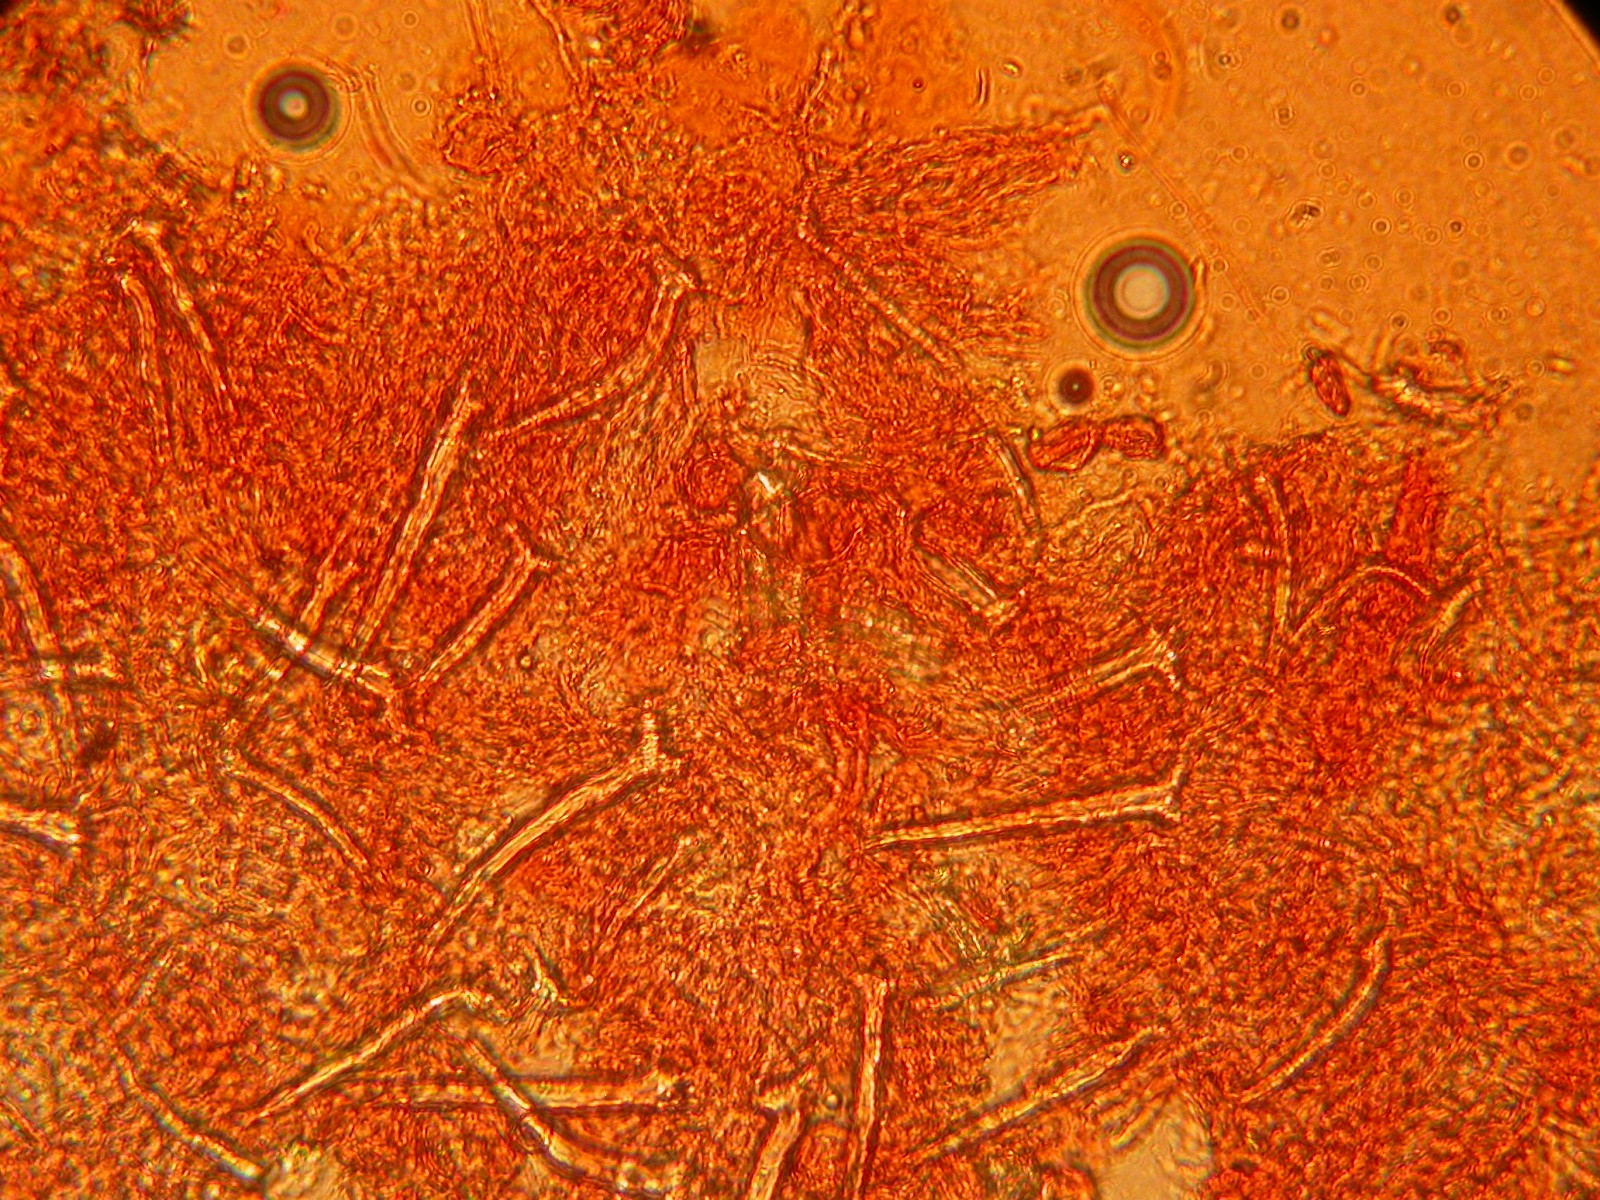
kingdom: Fungi
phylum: Basidiomycota
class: Agaricomycetes
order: Hymenochaetales
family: Hymenochaetaceae
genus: Tubulicrinis
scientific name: Tubulicrinis subulatus
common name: spids nålehinde
